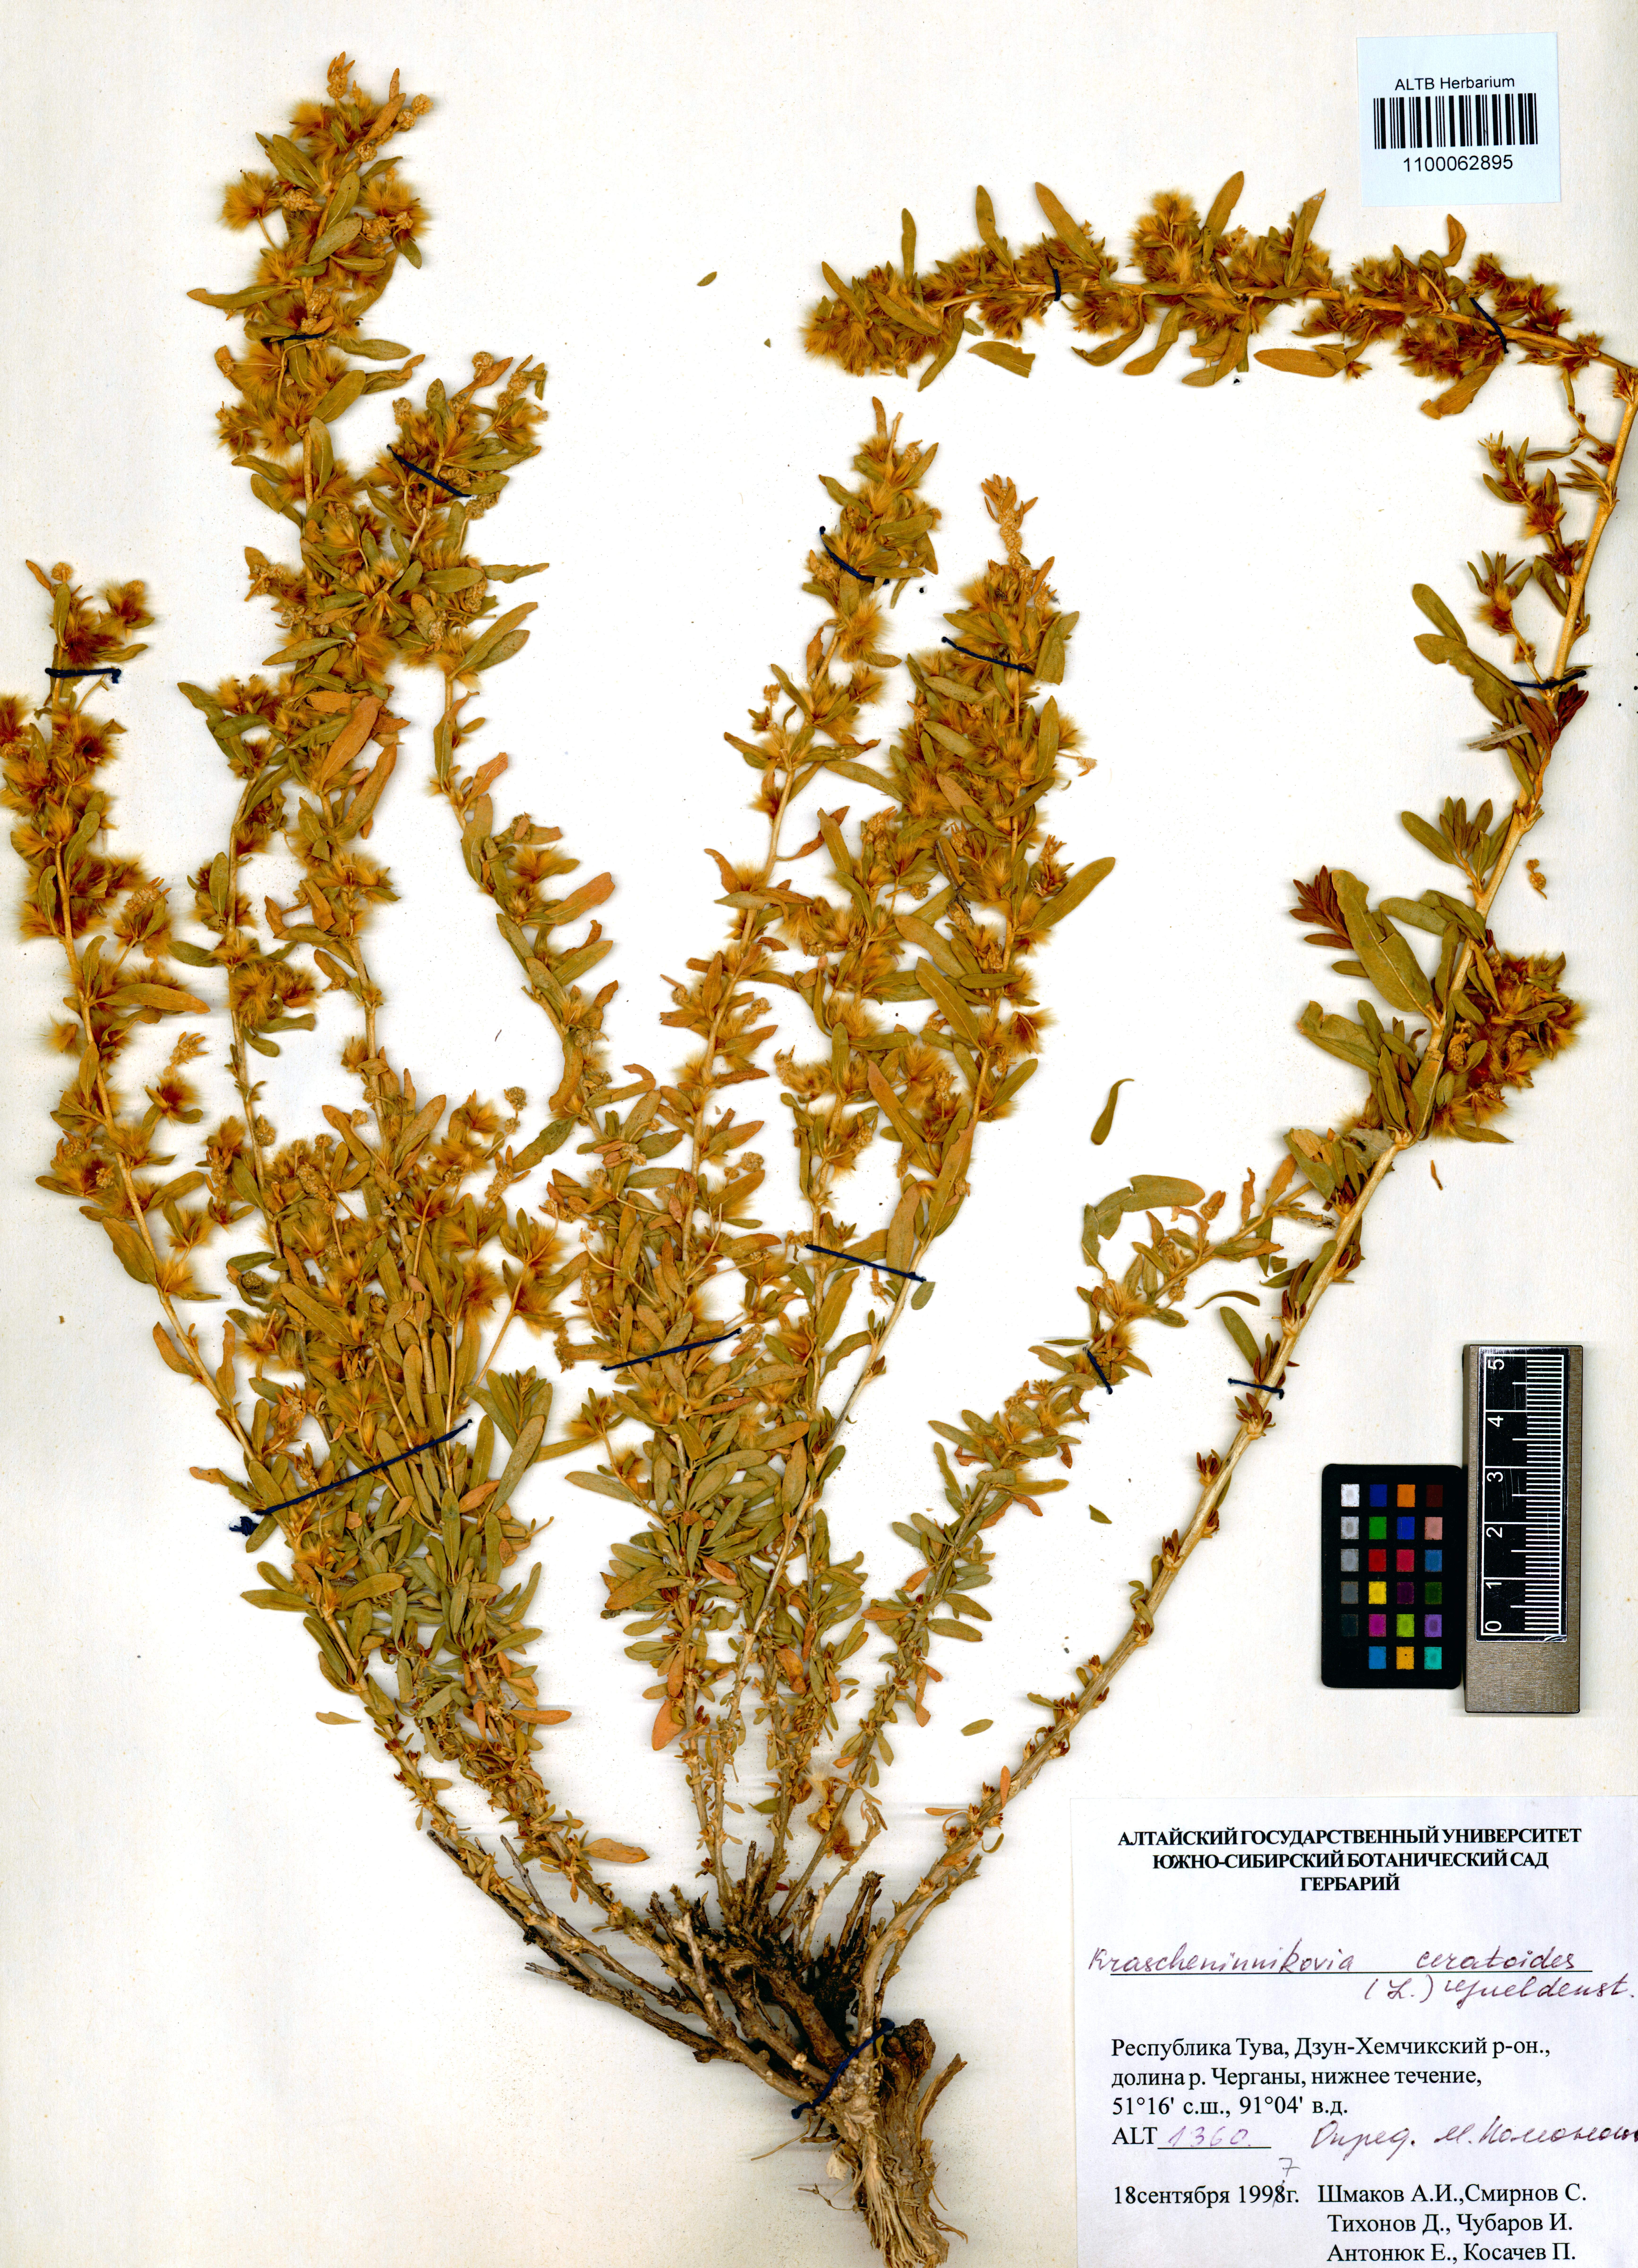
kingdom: Plantae
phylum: Tracheophyta
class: Magnoliopsida
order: Caryophyllales
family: Amaranthaceae
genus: Krascheninnikovia
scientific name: Krascheninnikovia ceratoides
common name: Pamirian winterfat
